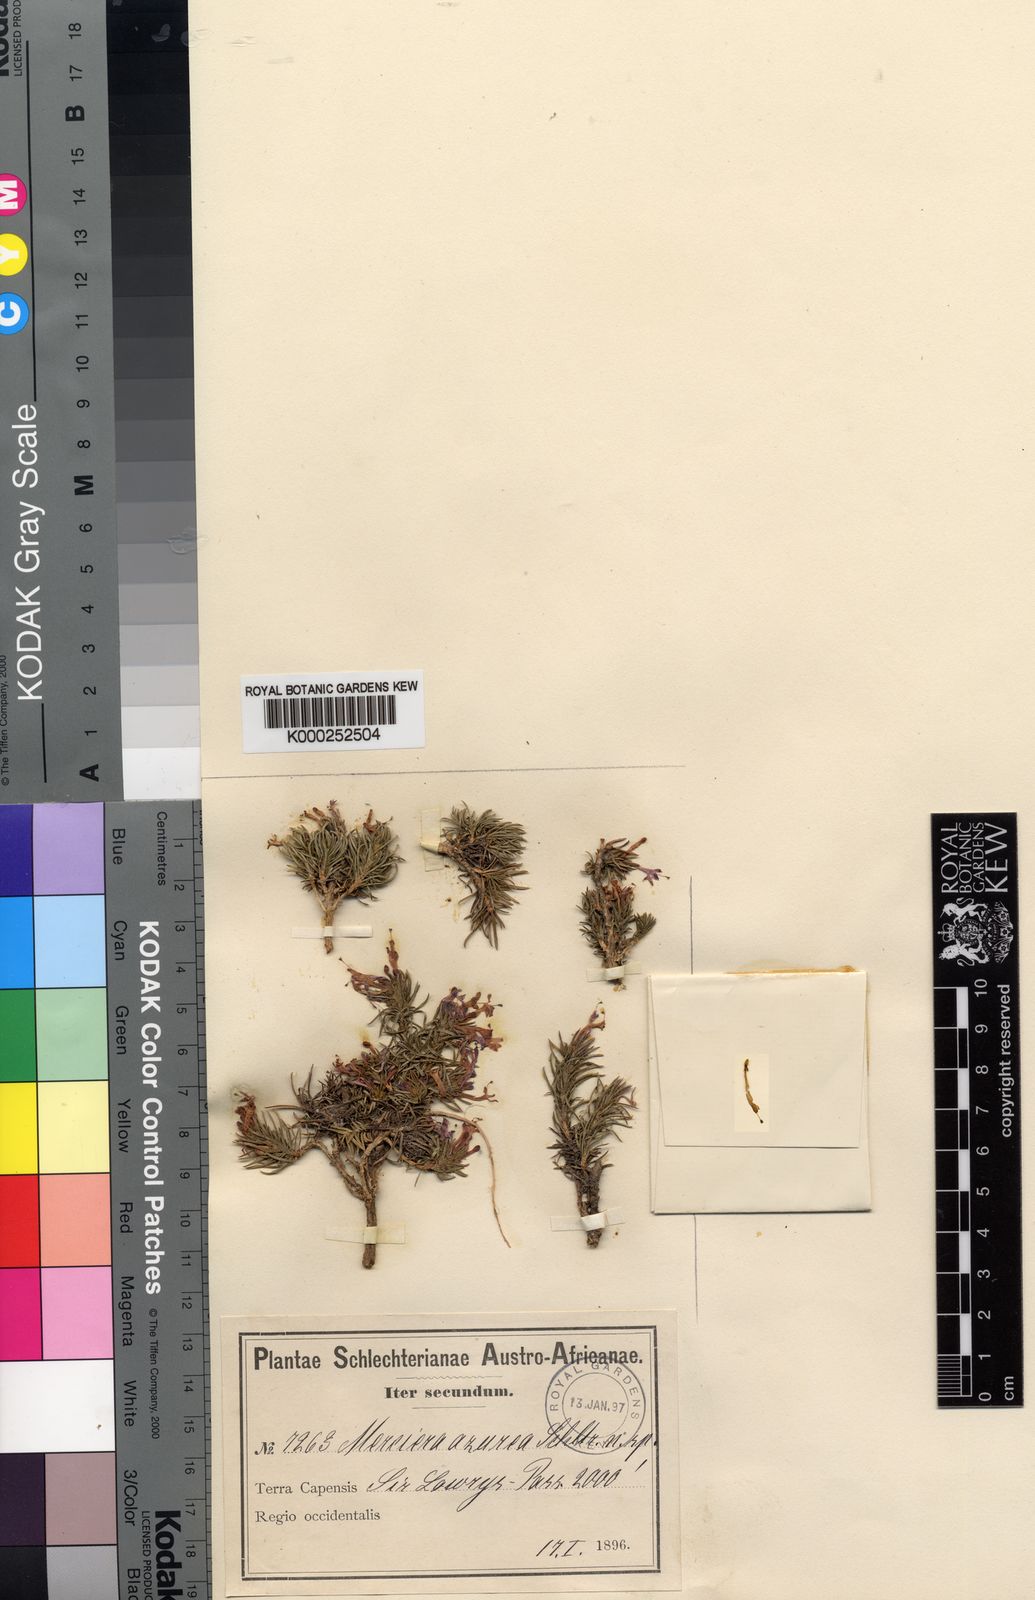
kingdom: Plantae
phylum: Tracheophyta
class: Magnoliopsida
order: Asterales
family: Campanulaceae
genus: Merciera
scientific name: Merciera azurea
